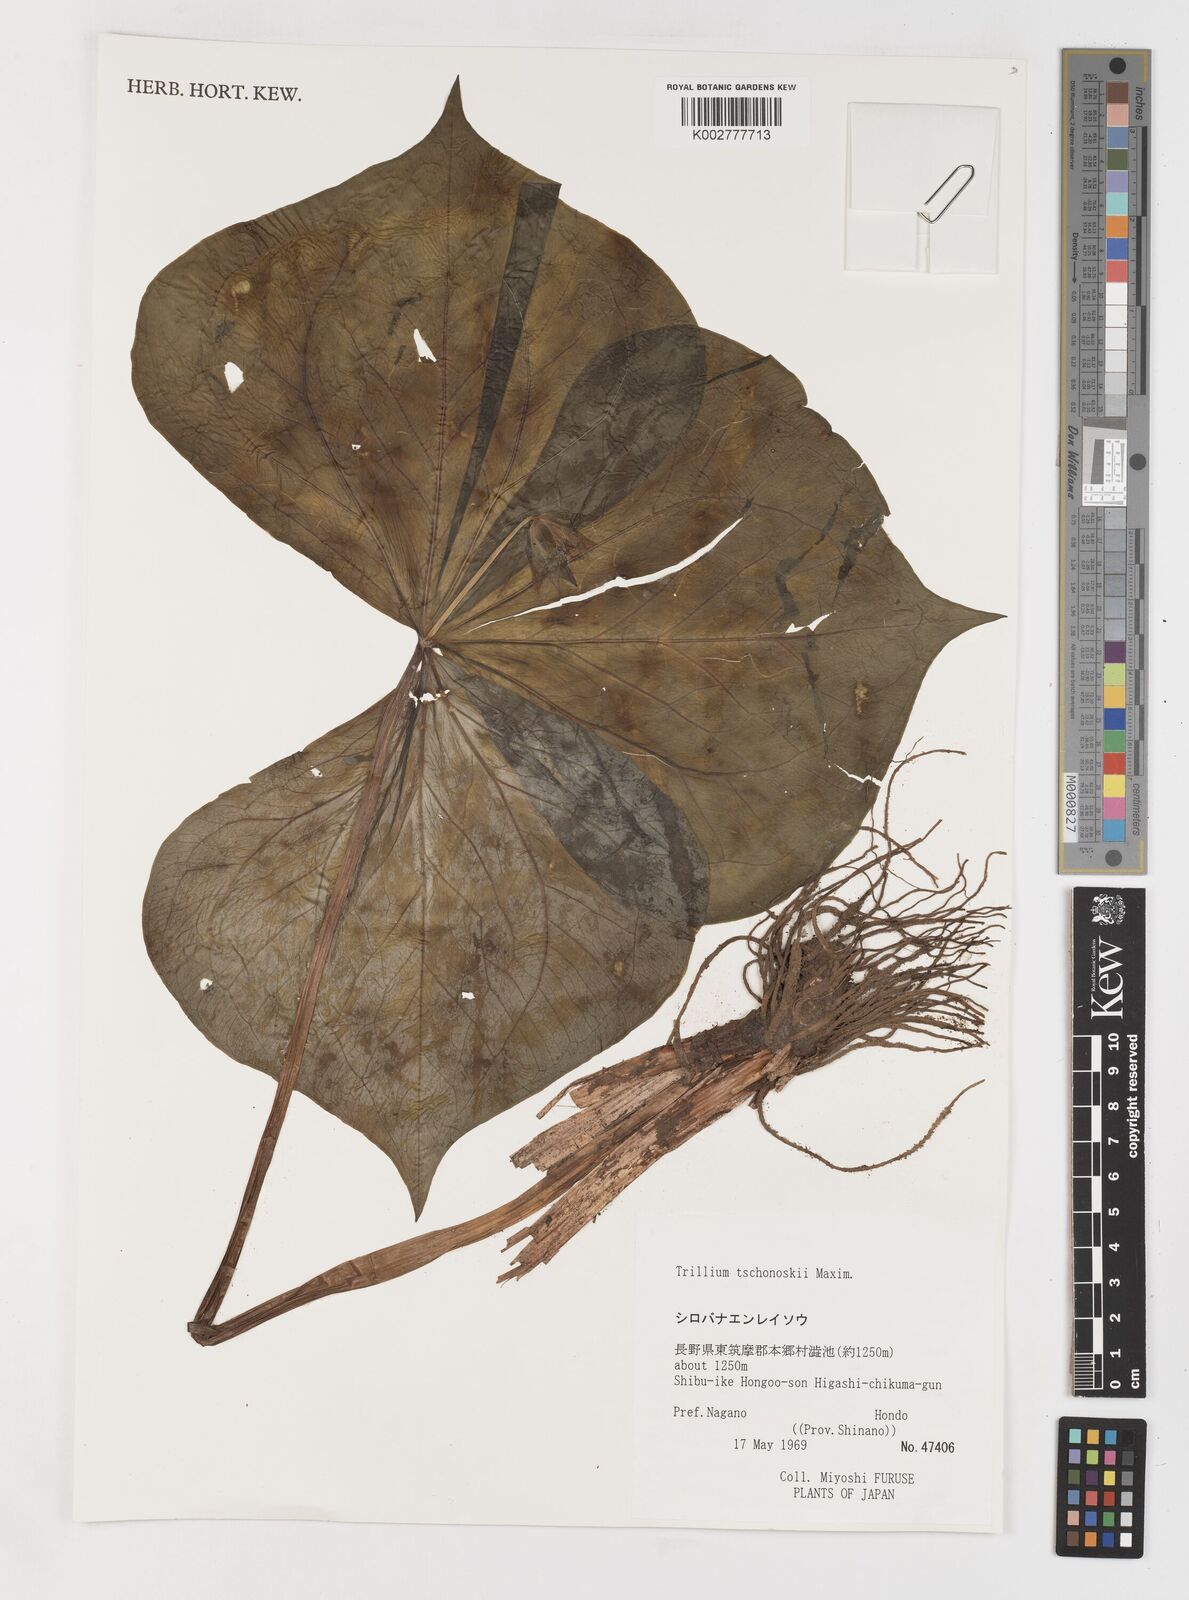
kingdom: Plantae
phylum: Tracheophyta
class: Liliopsida
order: Liliales
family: Melanthiaceae
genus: Trillium
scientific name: Trillium tschonoskii
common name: A pearl on head
